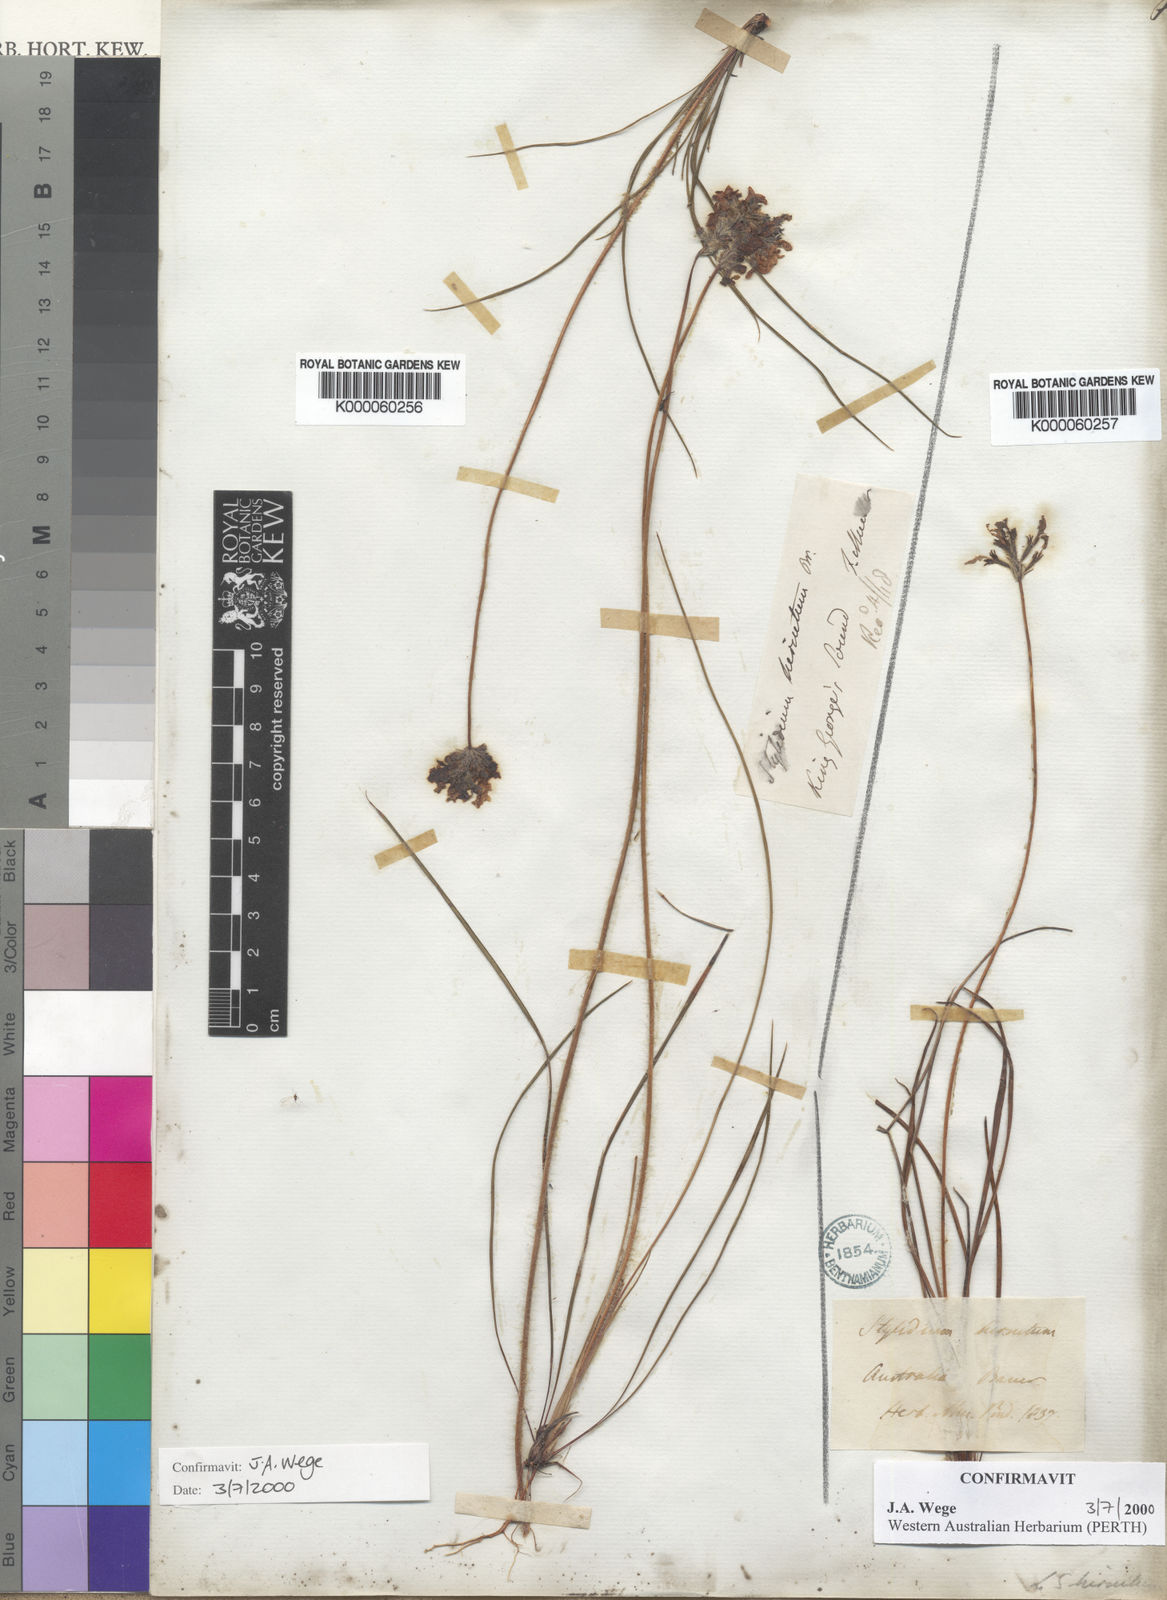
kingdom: Plantae
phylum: Tracheophyta
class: Magnoliopsida
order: Asterales
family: Stylidiaceae
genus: Stylidium
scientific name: Stylidium hirsutum
